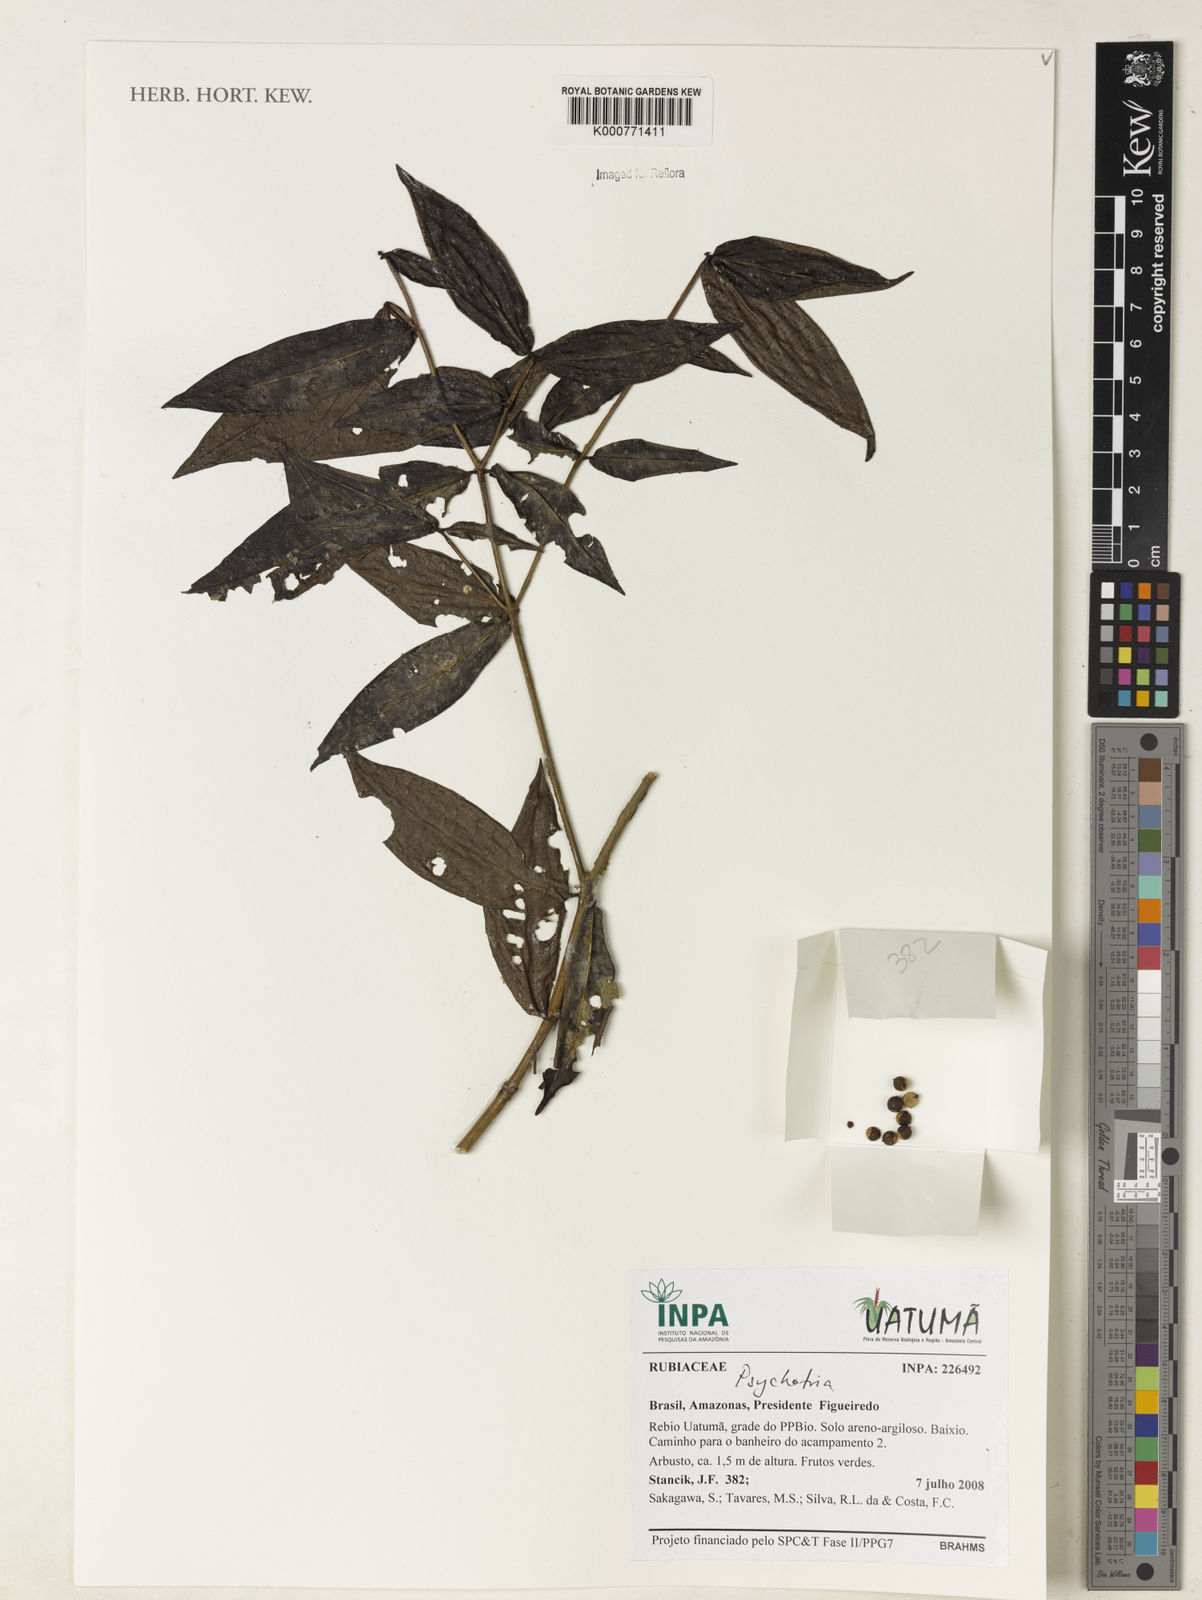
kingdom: Plantae
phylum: Tracheophyta
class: Magnoliopsida
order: Gentianales
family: Rubiaceae
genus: Psychotria
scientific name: Psychotria
